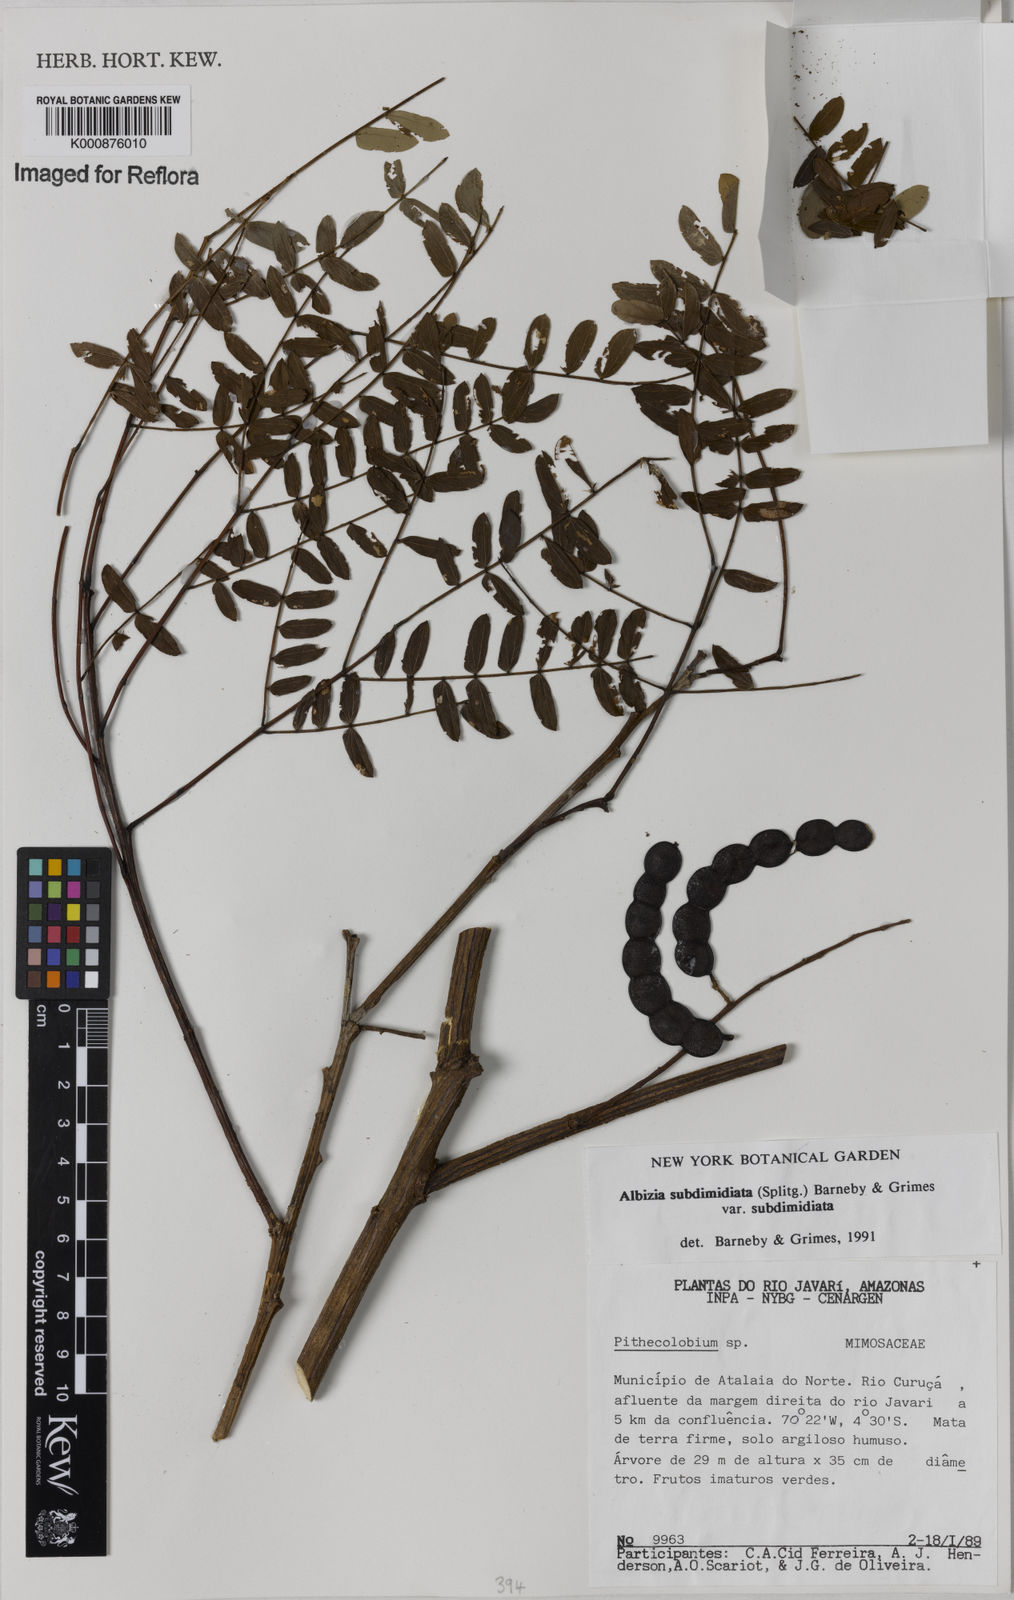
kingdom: Plantae
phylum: Tracheophyta
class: Magnoliopsida
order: Fabales
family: Fabaceae
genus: Albizia
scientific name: Albizia subdimidiata
